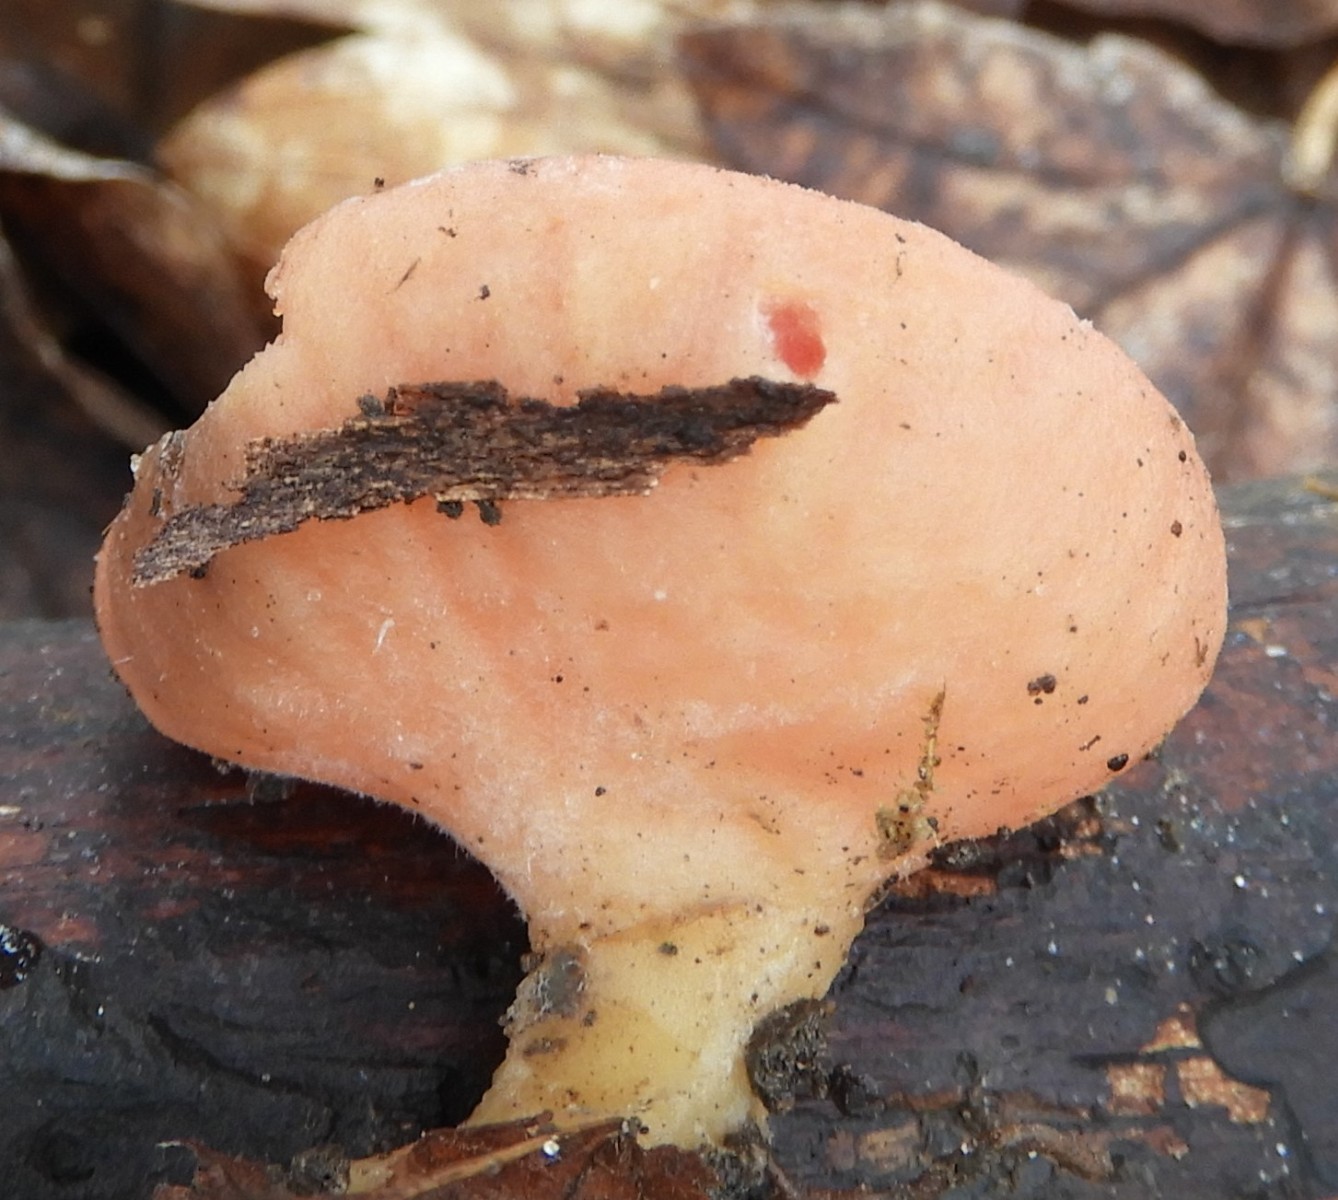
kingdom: Fungi
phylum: Ascomycota
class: Pezizomycetes
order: Pezizales
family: Sarcoscyphaceae
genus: Sarcoscypha
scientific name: Sarcoscypha austriaca
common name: krølhåret pragtbæger
